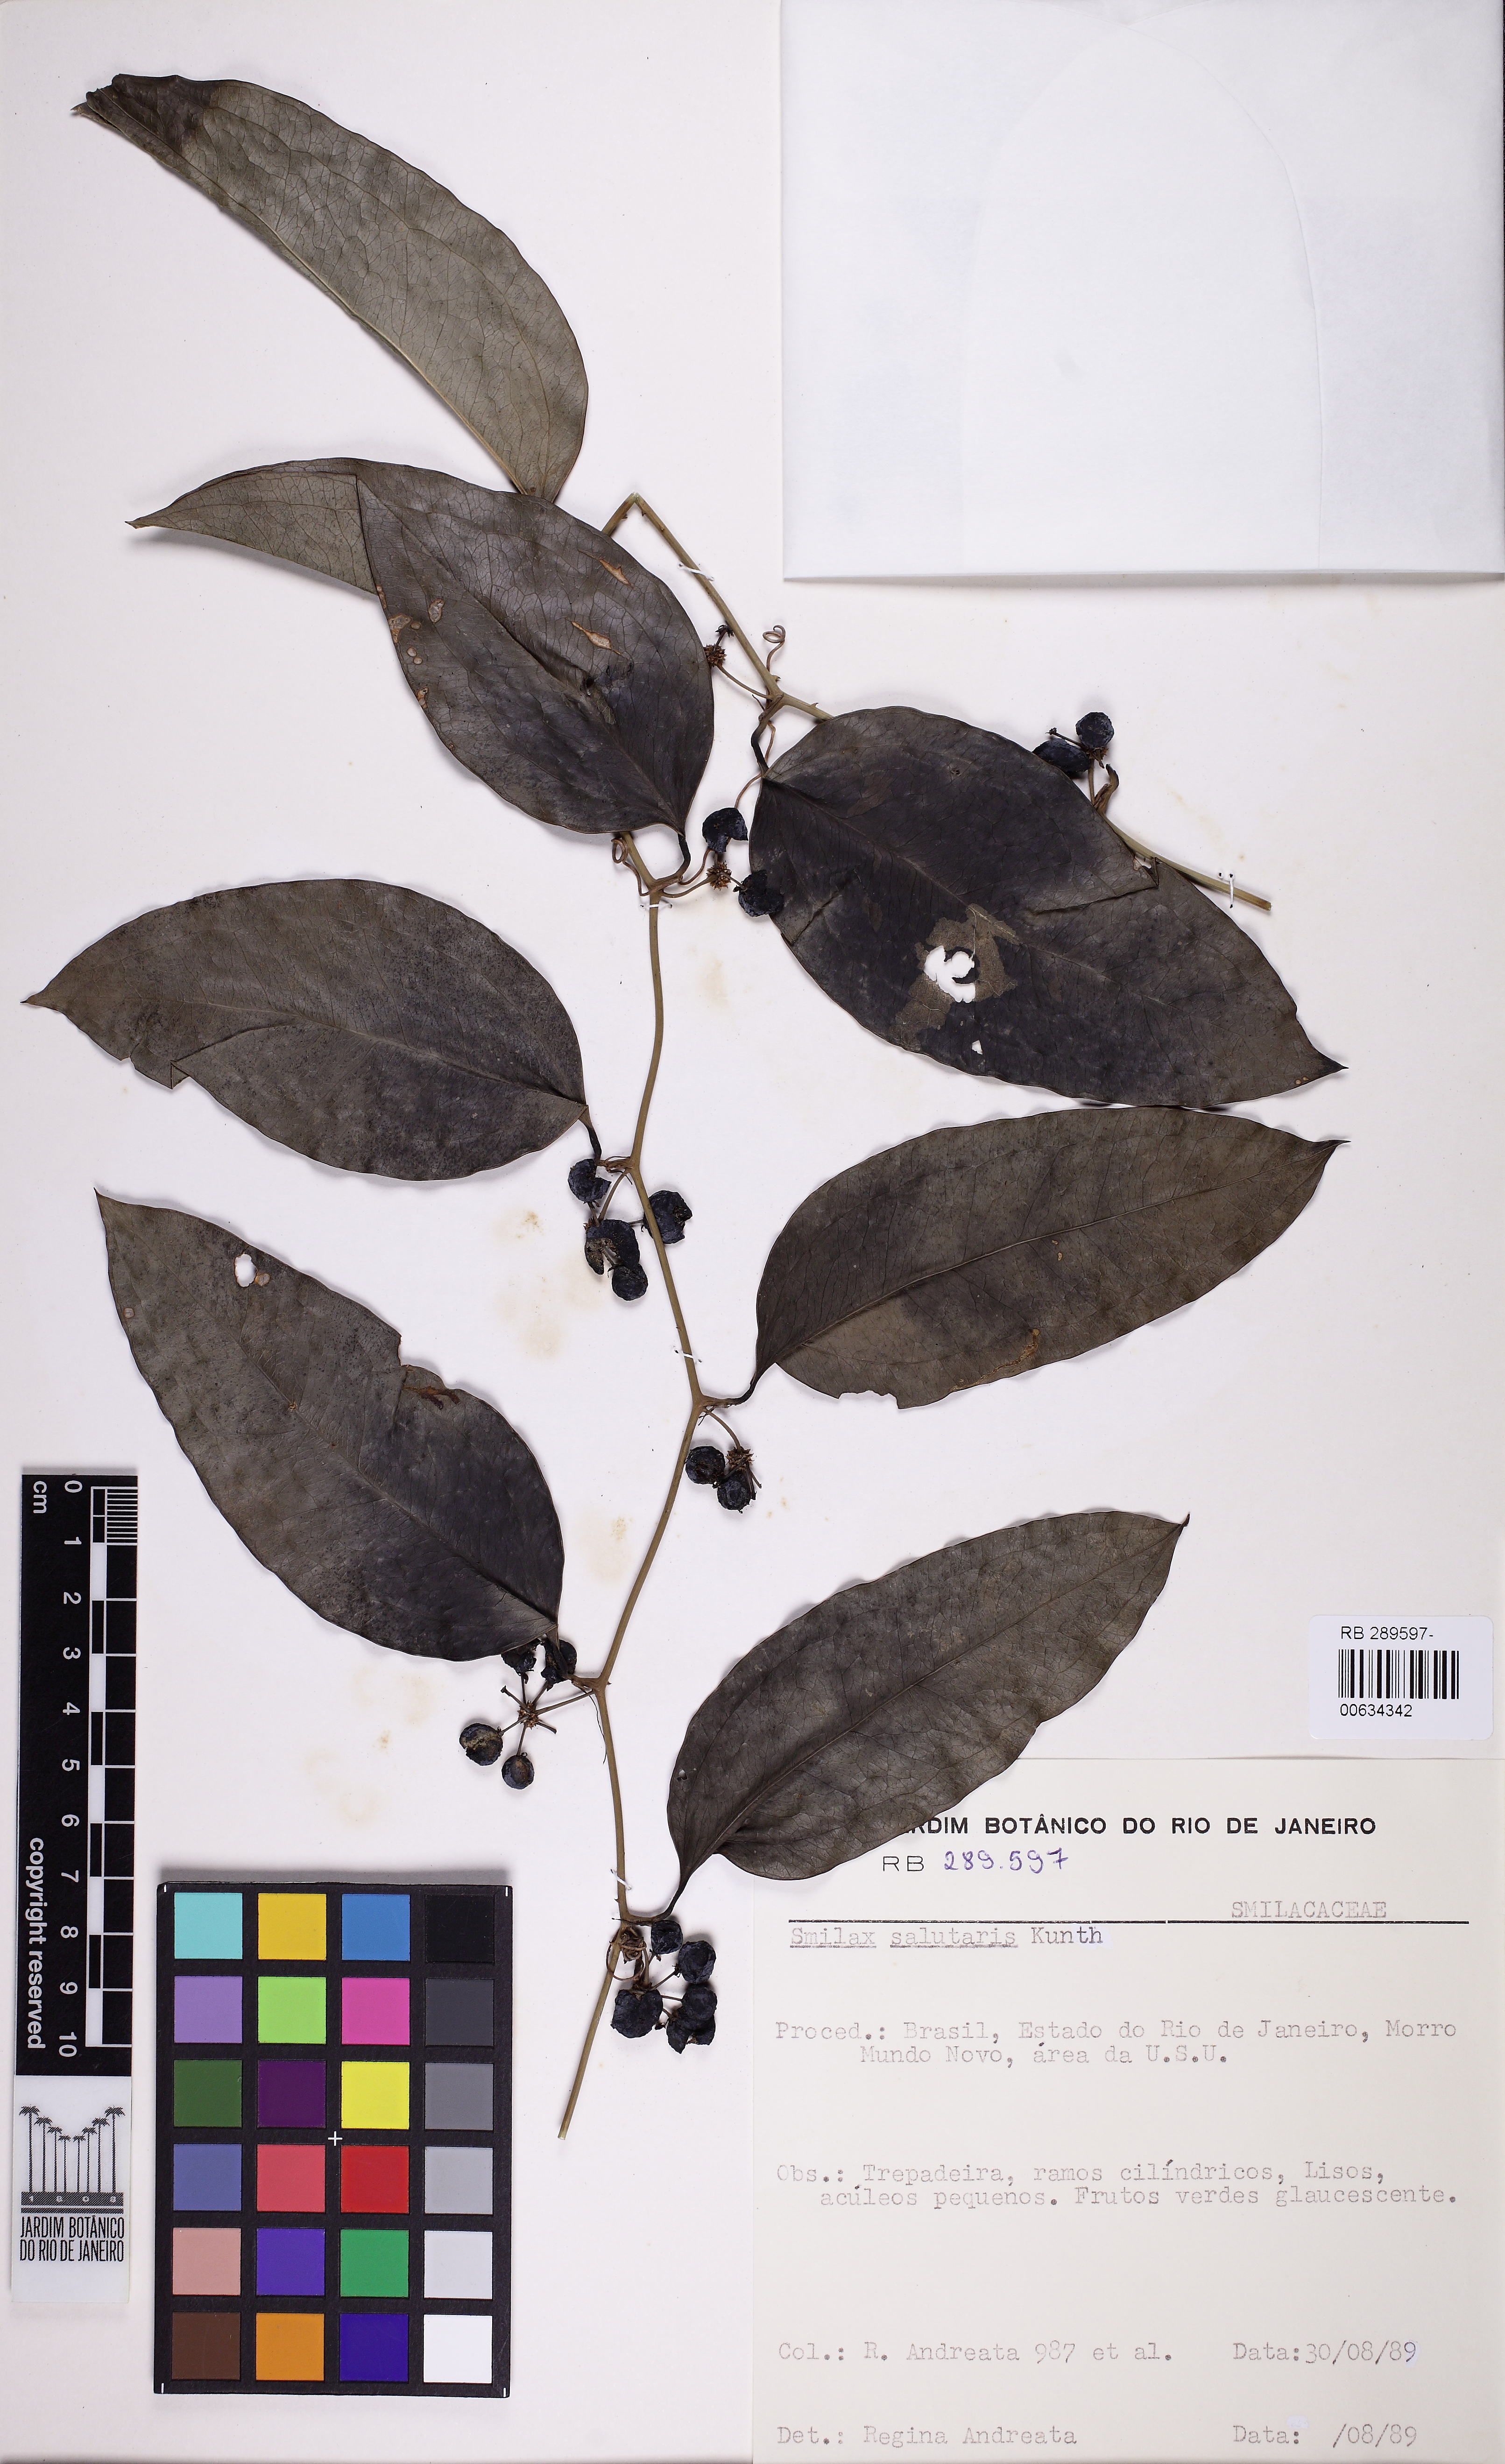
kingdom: Plantae
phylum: Tracheophyta
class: Liliopsida
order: Liliales
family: Smilacaceae
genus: Smilax
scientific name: Smilax subsessiliflora
